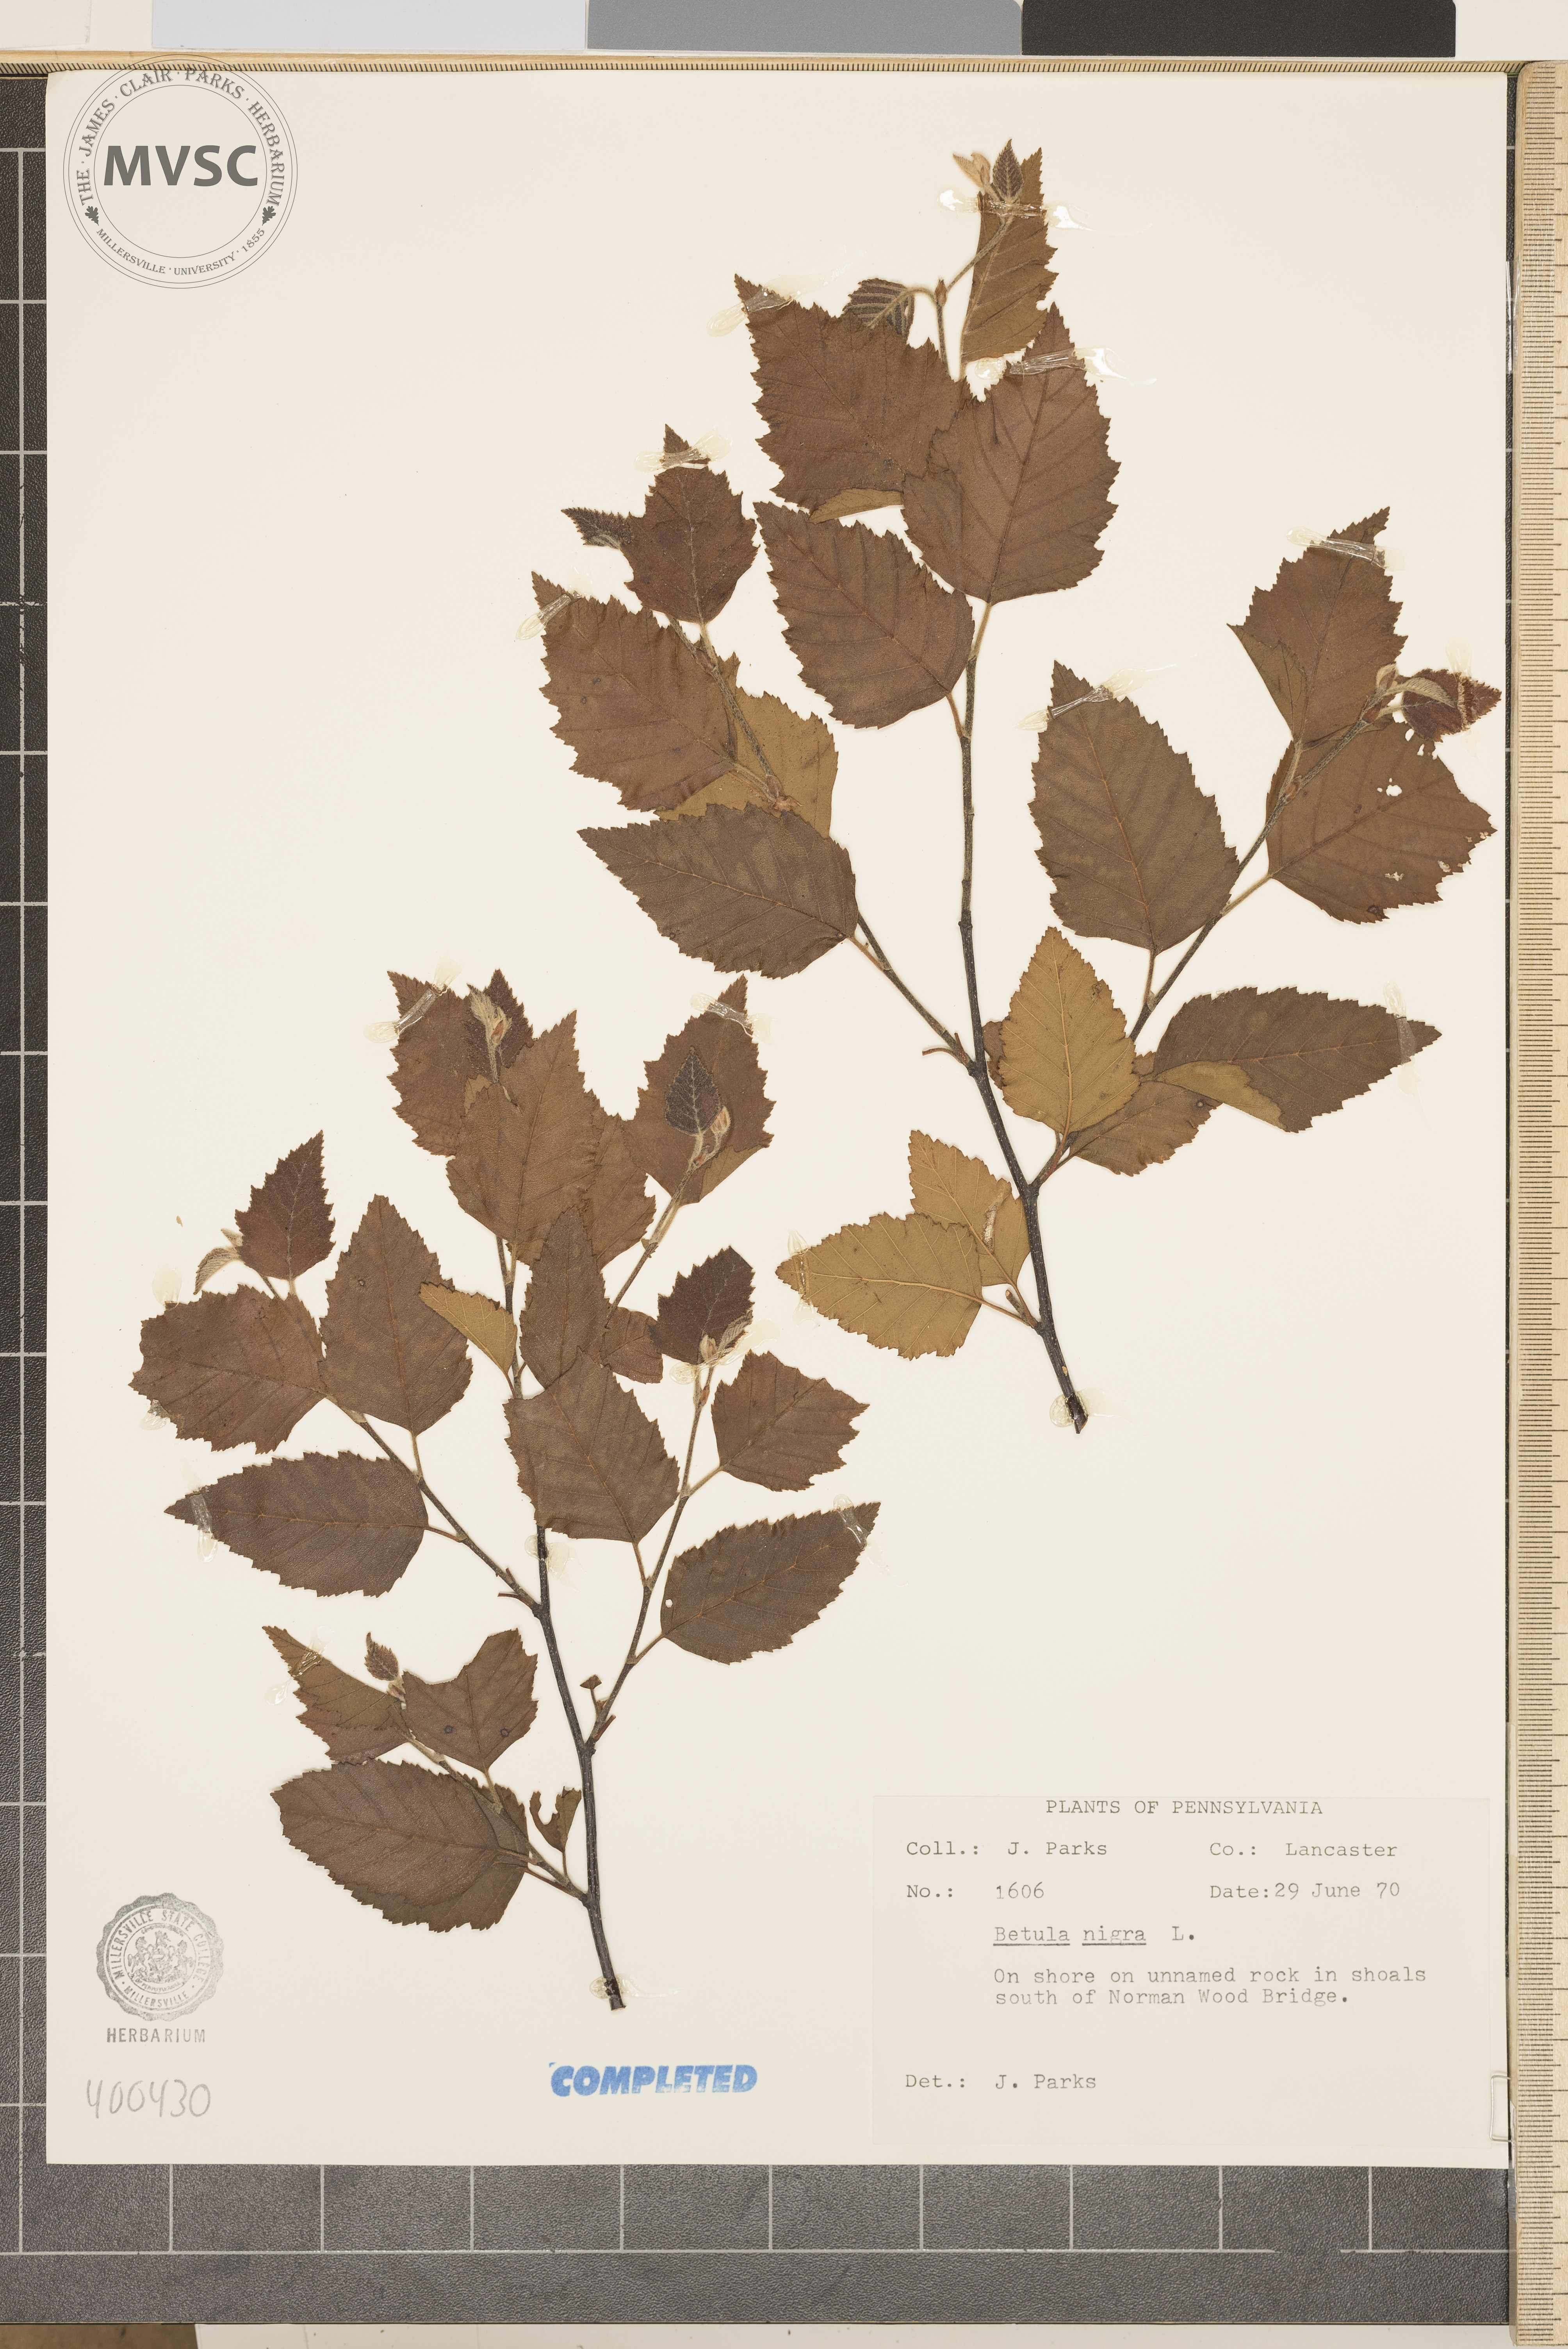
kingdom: Plantae
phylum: Tracheophyta
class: Magnoliopsida
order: Fagales
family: Betulaceae
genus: Betula
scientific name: Betula nigra
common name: river birch
